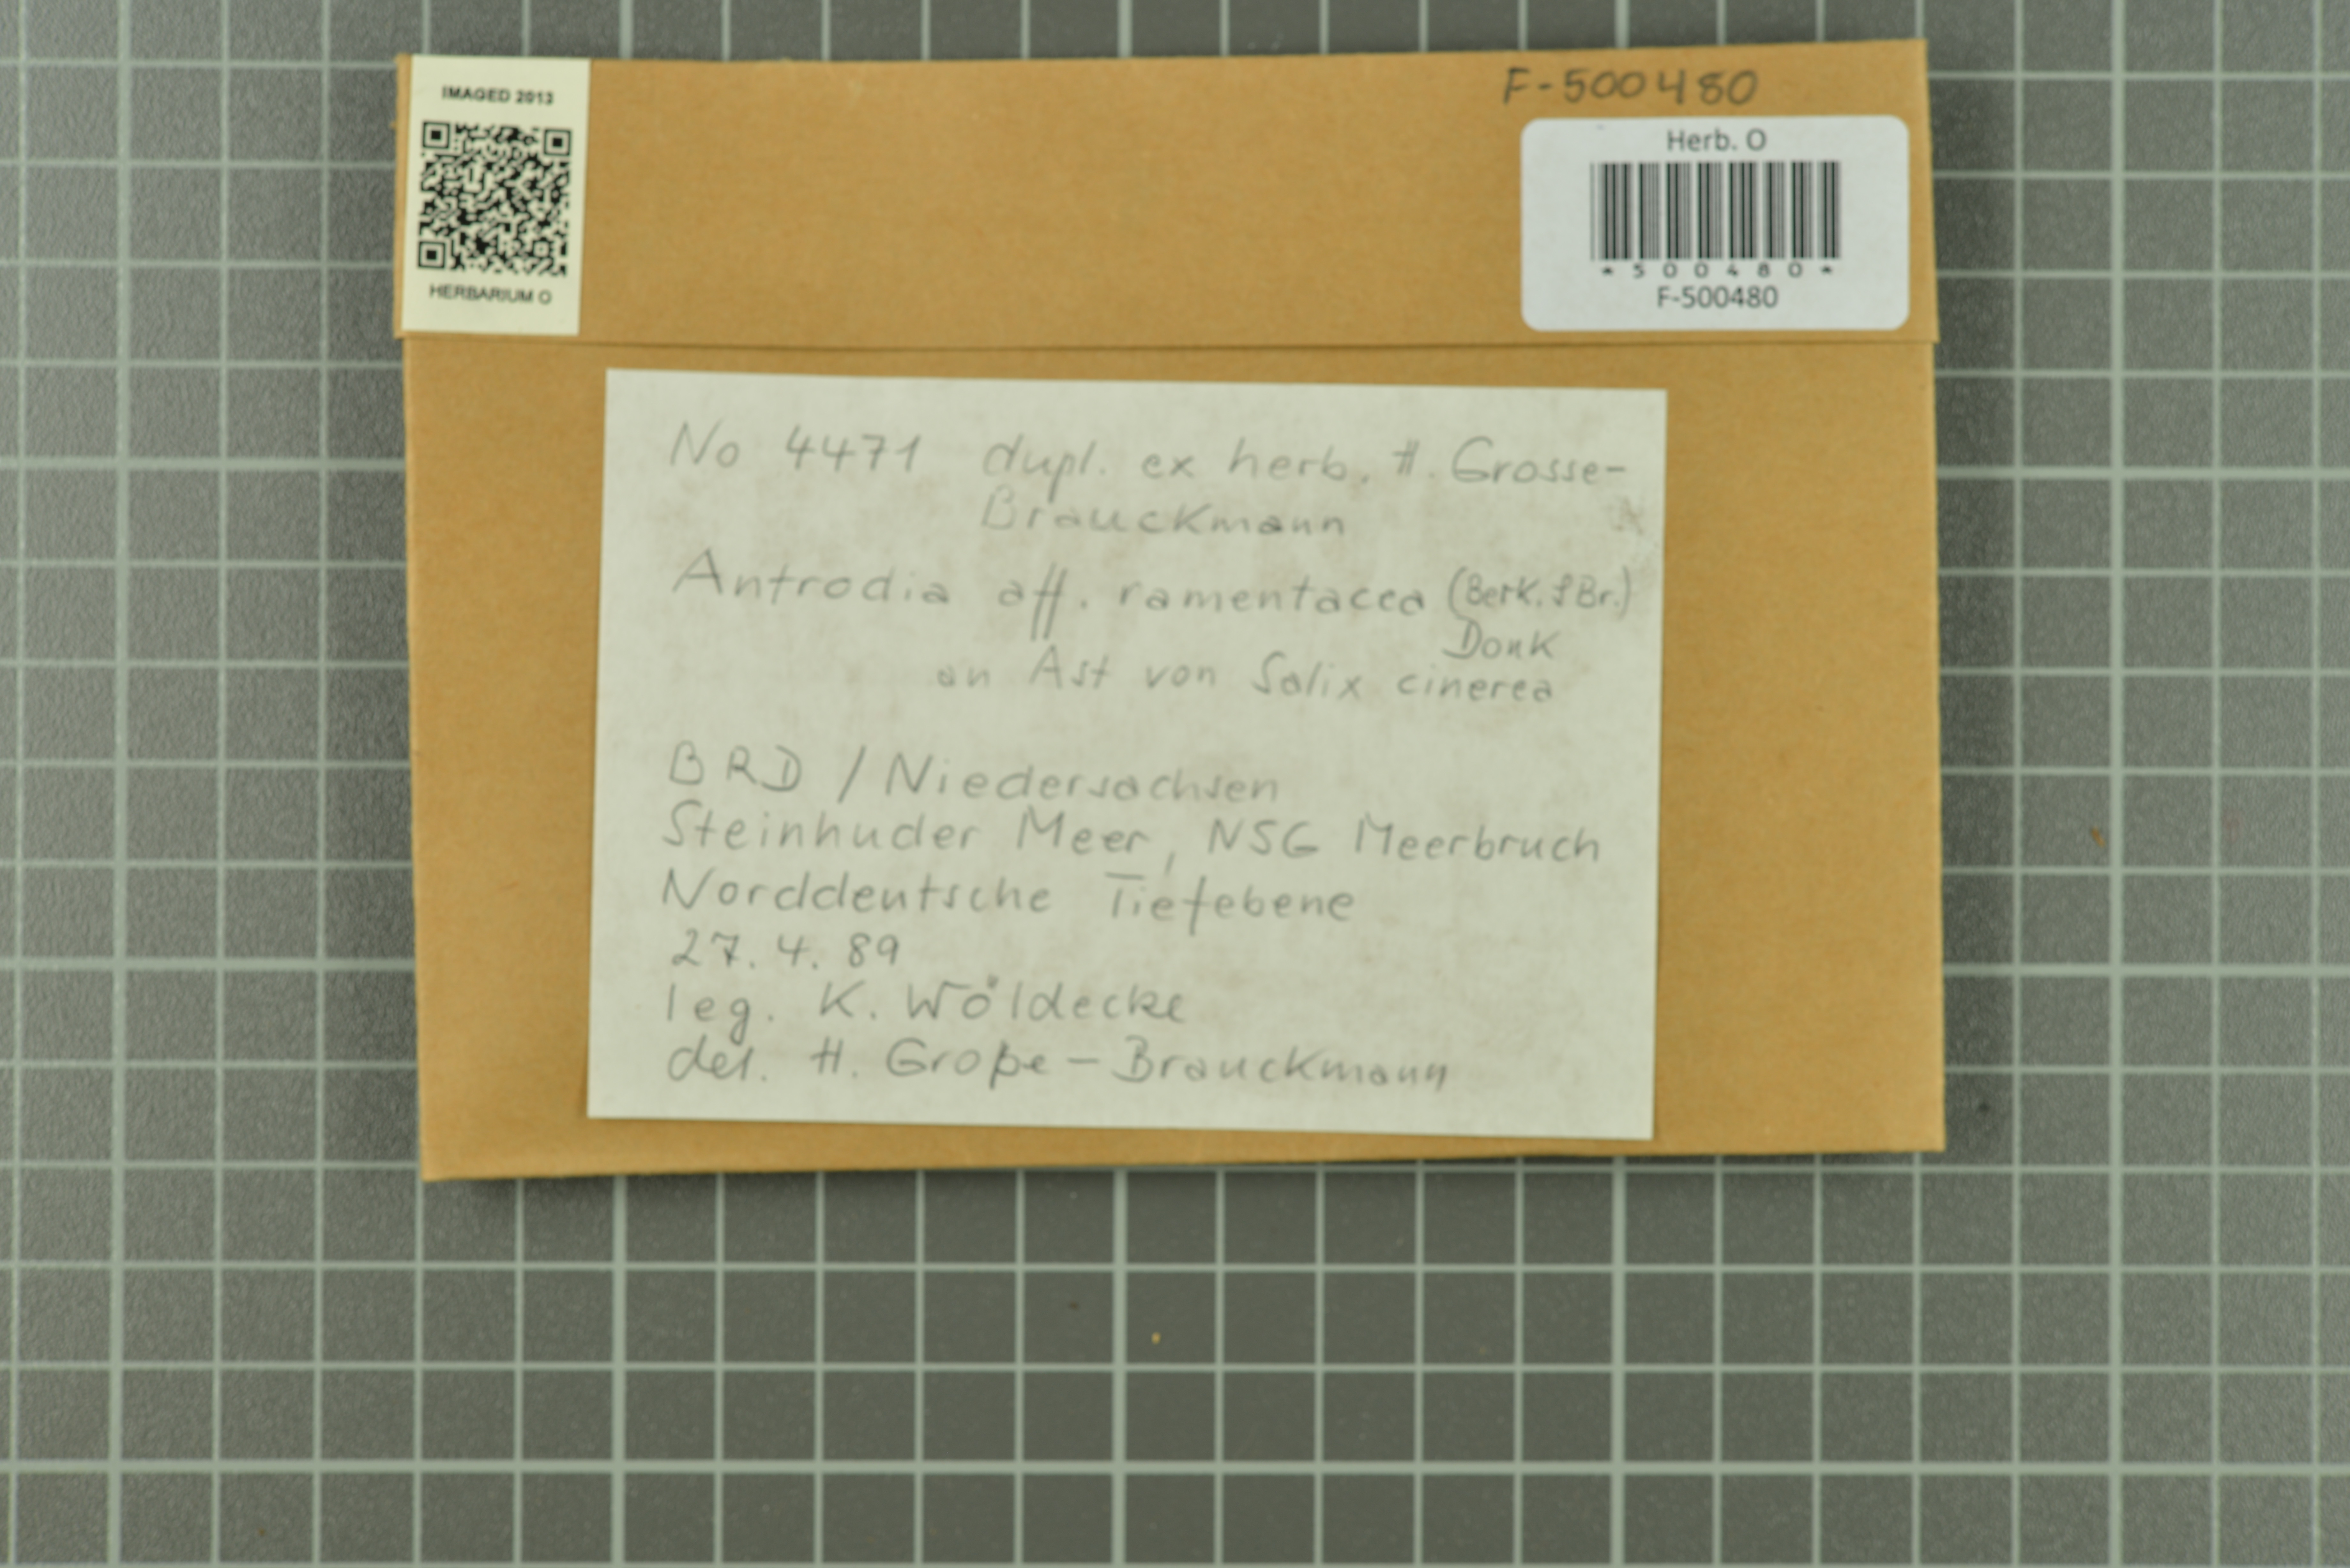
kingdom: Fungi
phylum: Basidiomycota
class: Agaricomycetes
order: Polyporales
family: Fomitopsidaceae
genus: Antrodia
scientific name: Antrodia ramentacea
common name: Honeycomb crust
